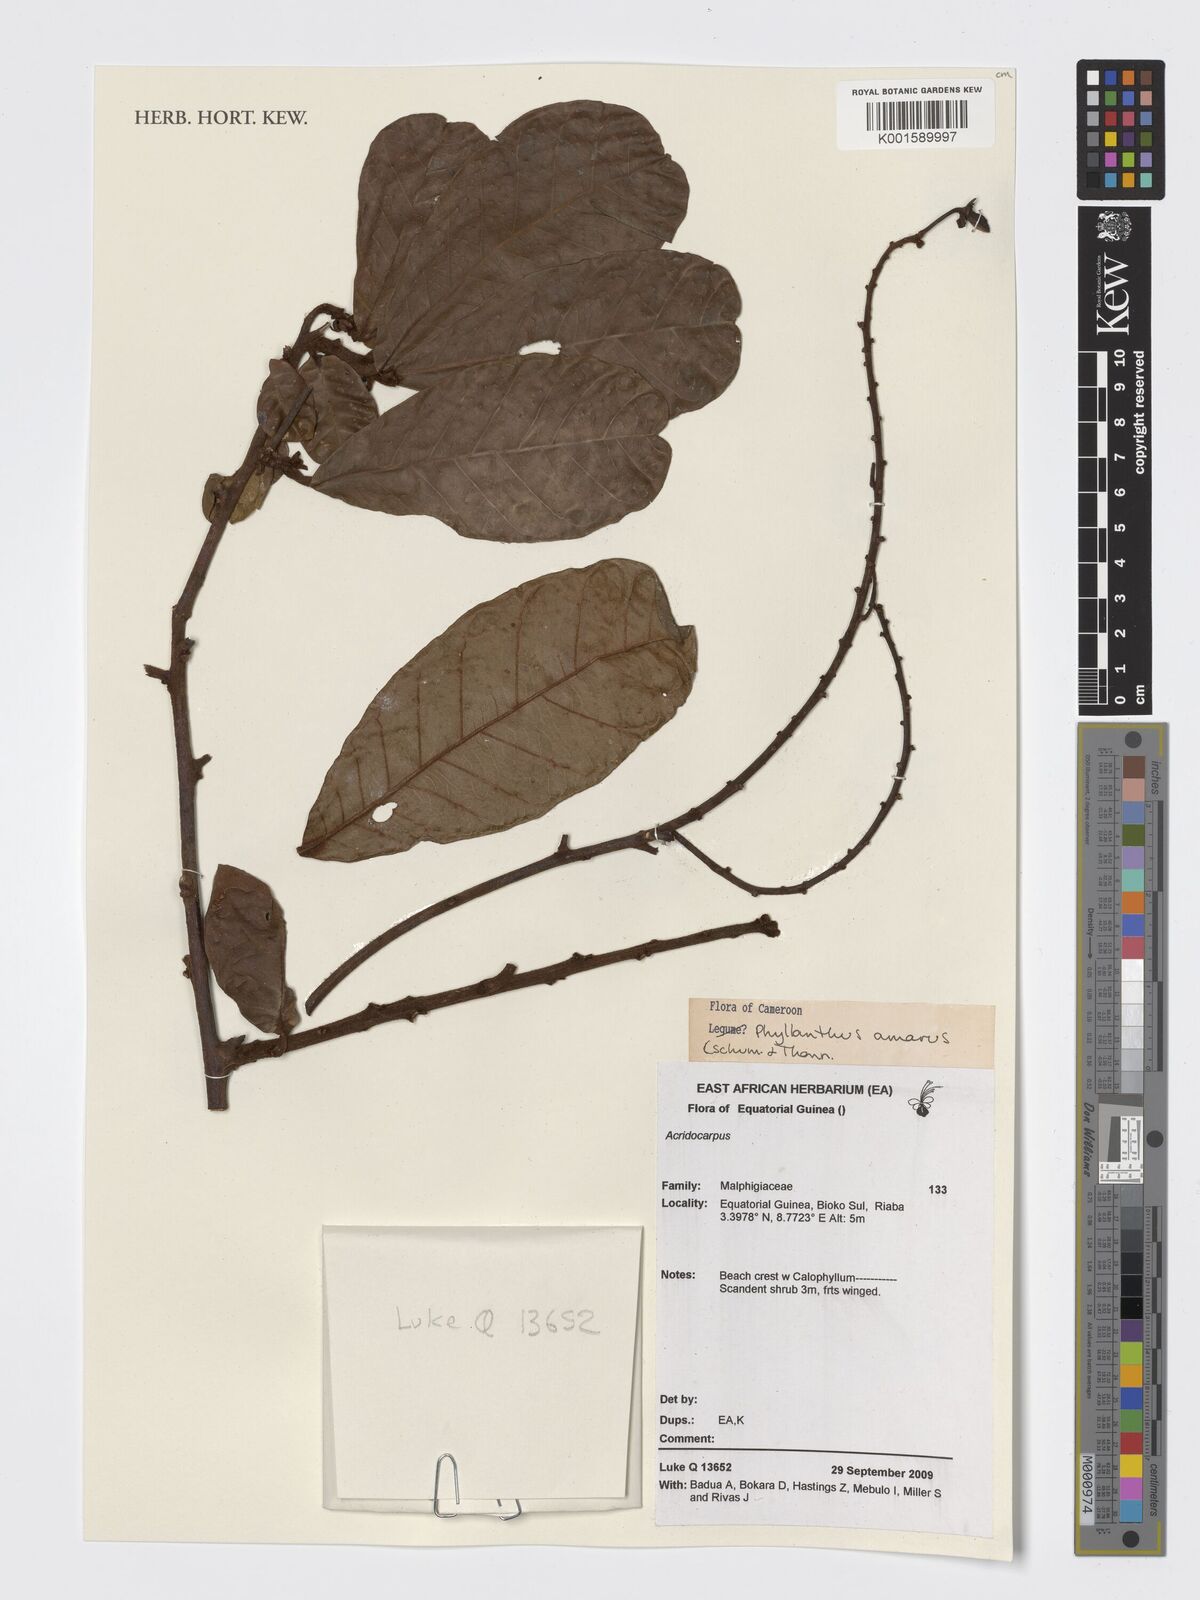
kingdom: Plantae
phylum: Tracheophyta
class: Magnoliopsida
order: Malpighiales
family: Phyllanthaceae
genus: Phyllanthus
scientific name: Phyllanthus amarus
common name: Carry me seed
